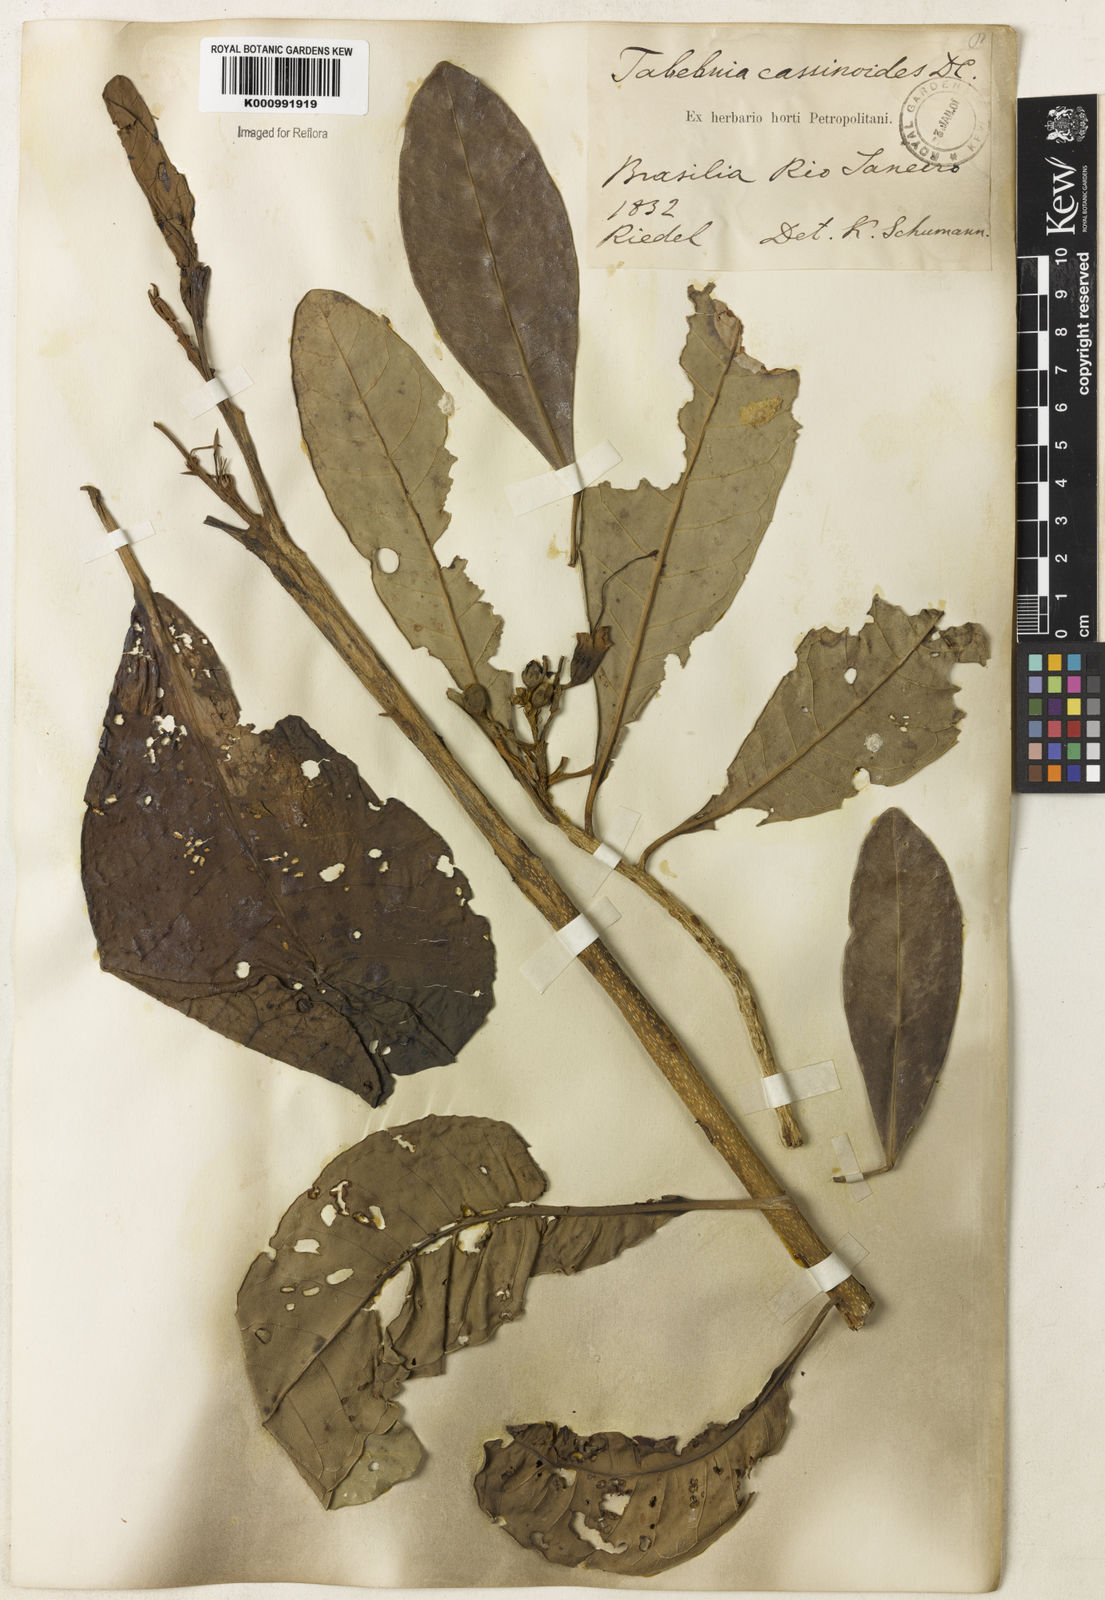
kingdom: Plantae
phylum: Tracheophyta
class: Magnoliopsida
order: Lamiales
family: Bignoniaceae
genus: Tabebuia
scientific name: Tabebuia cassinoides
